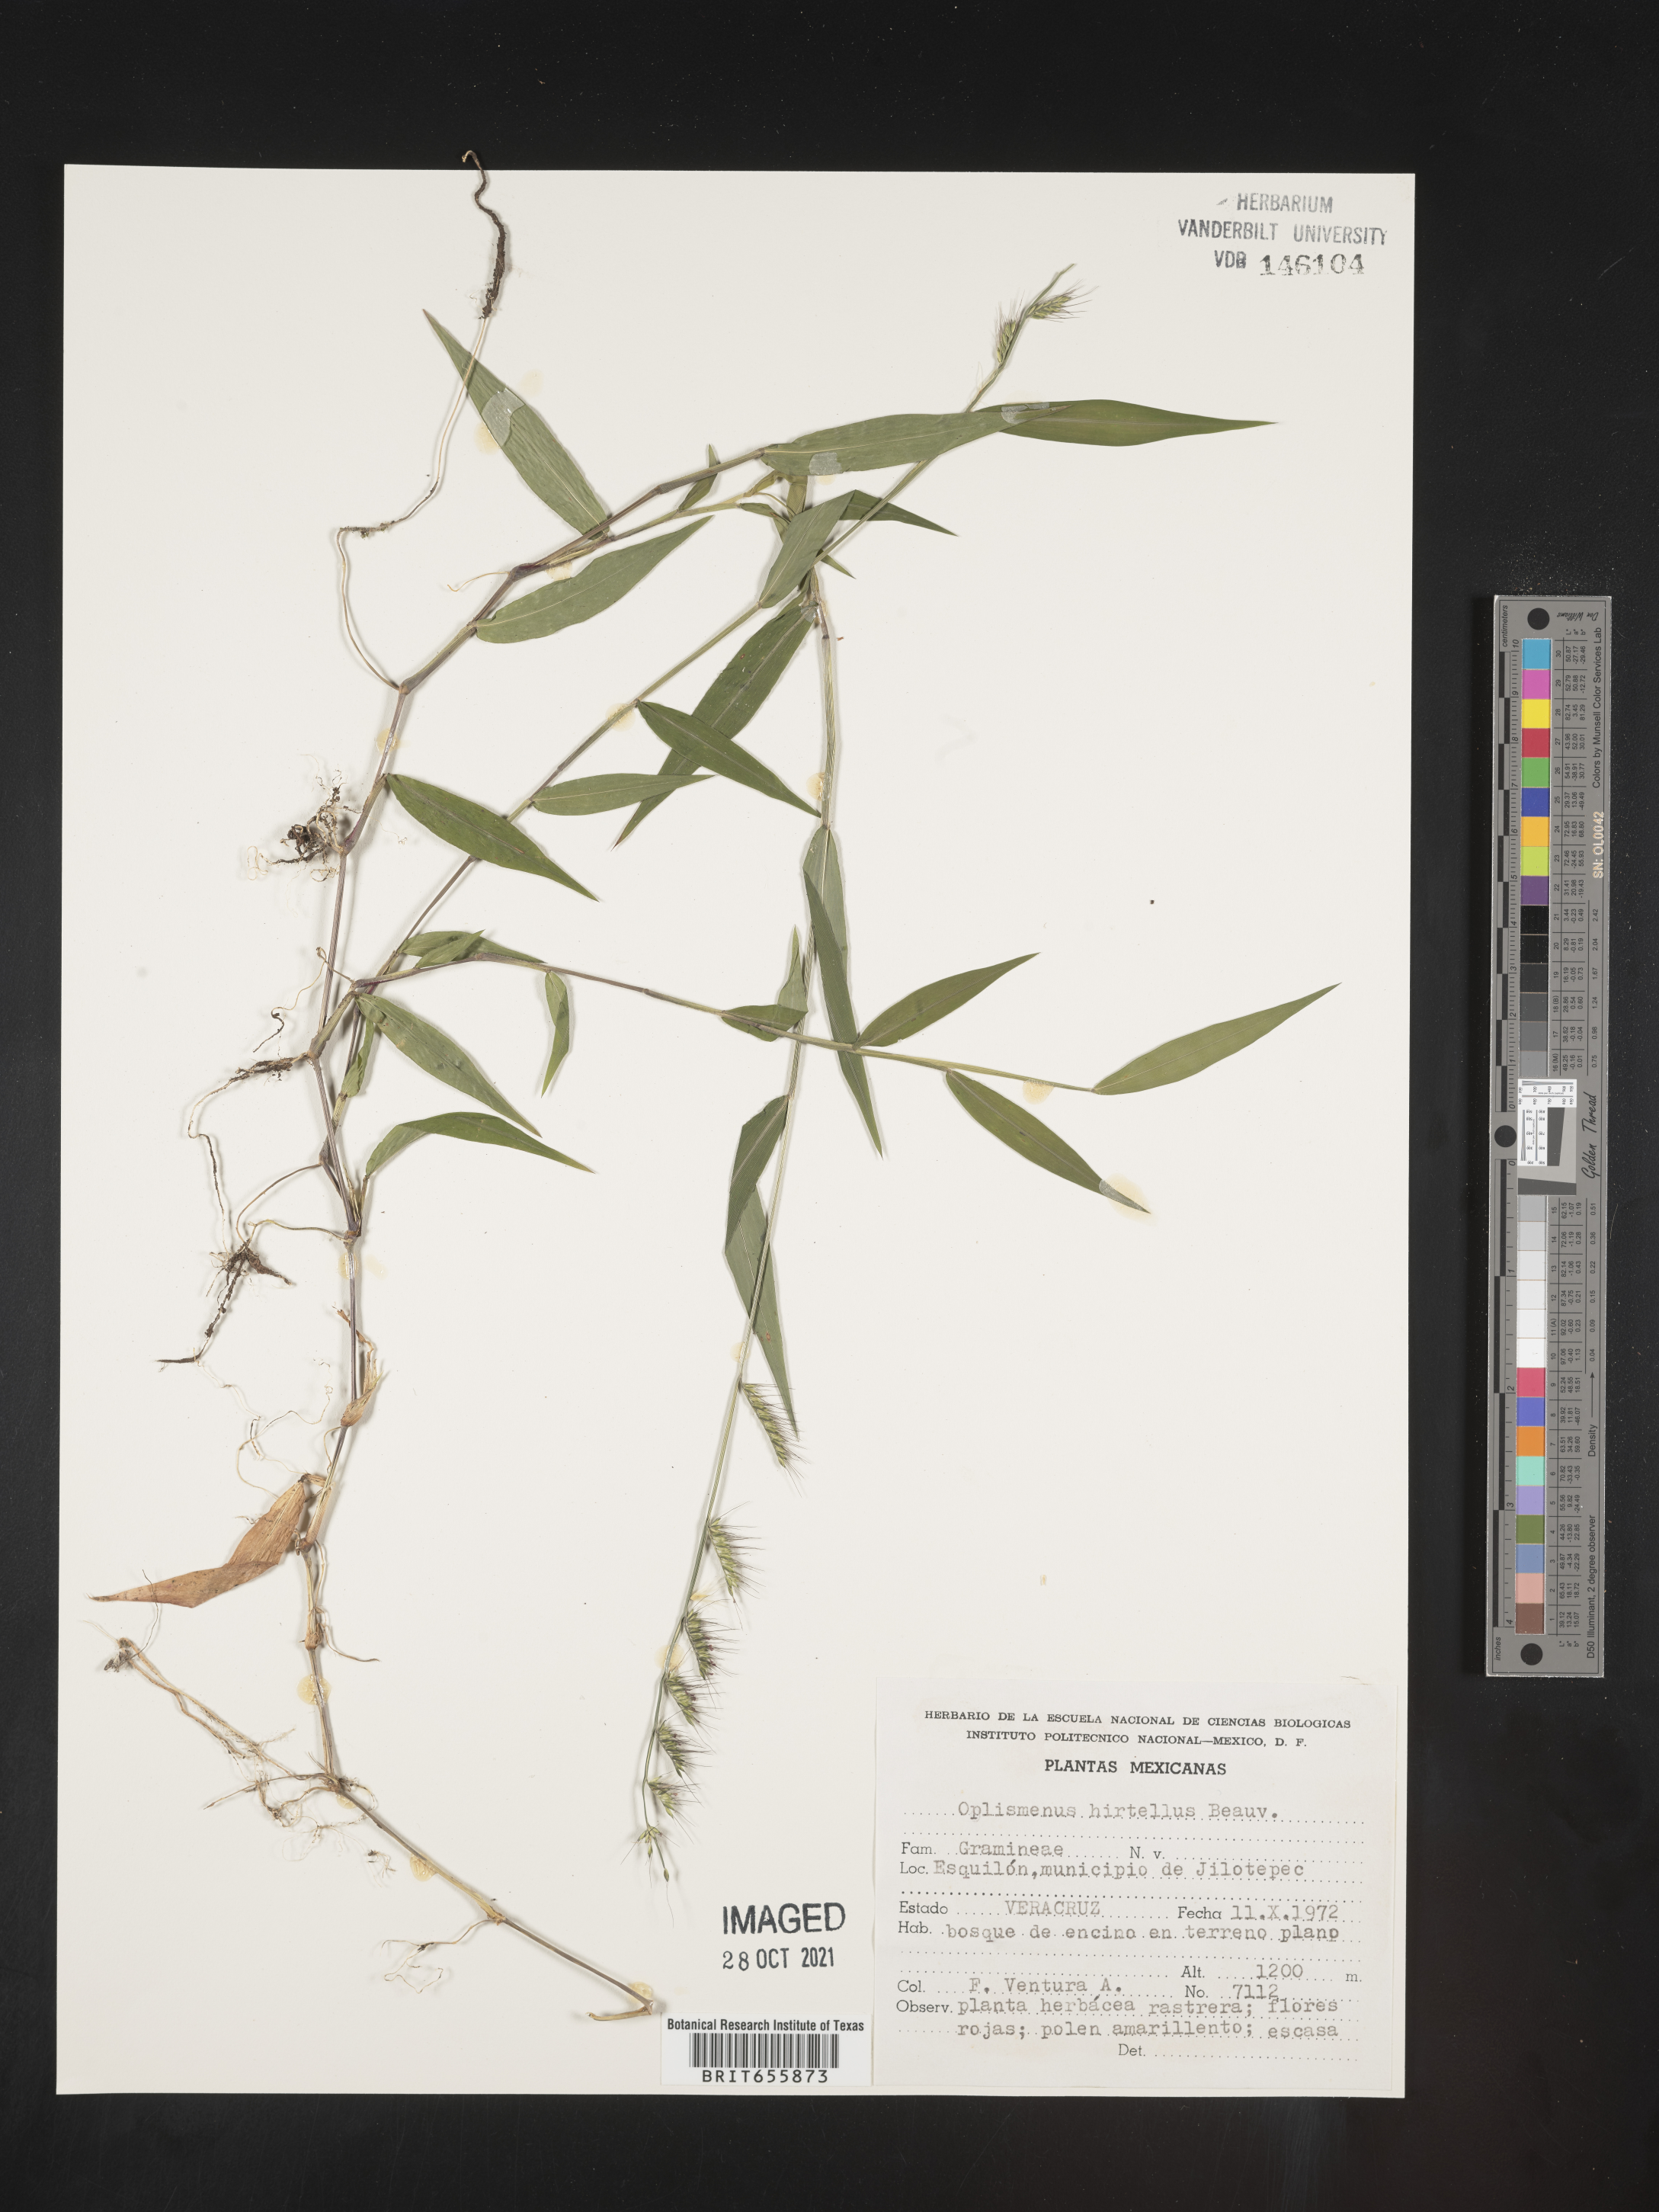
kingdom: Plantae
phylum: Tracheophyta
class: Liliopsida
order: Poales
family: Poaceae
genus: Oplismenus
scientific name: Oplismenus
